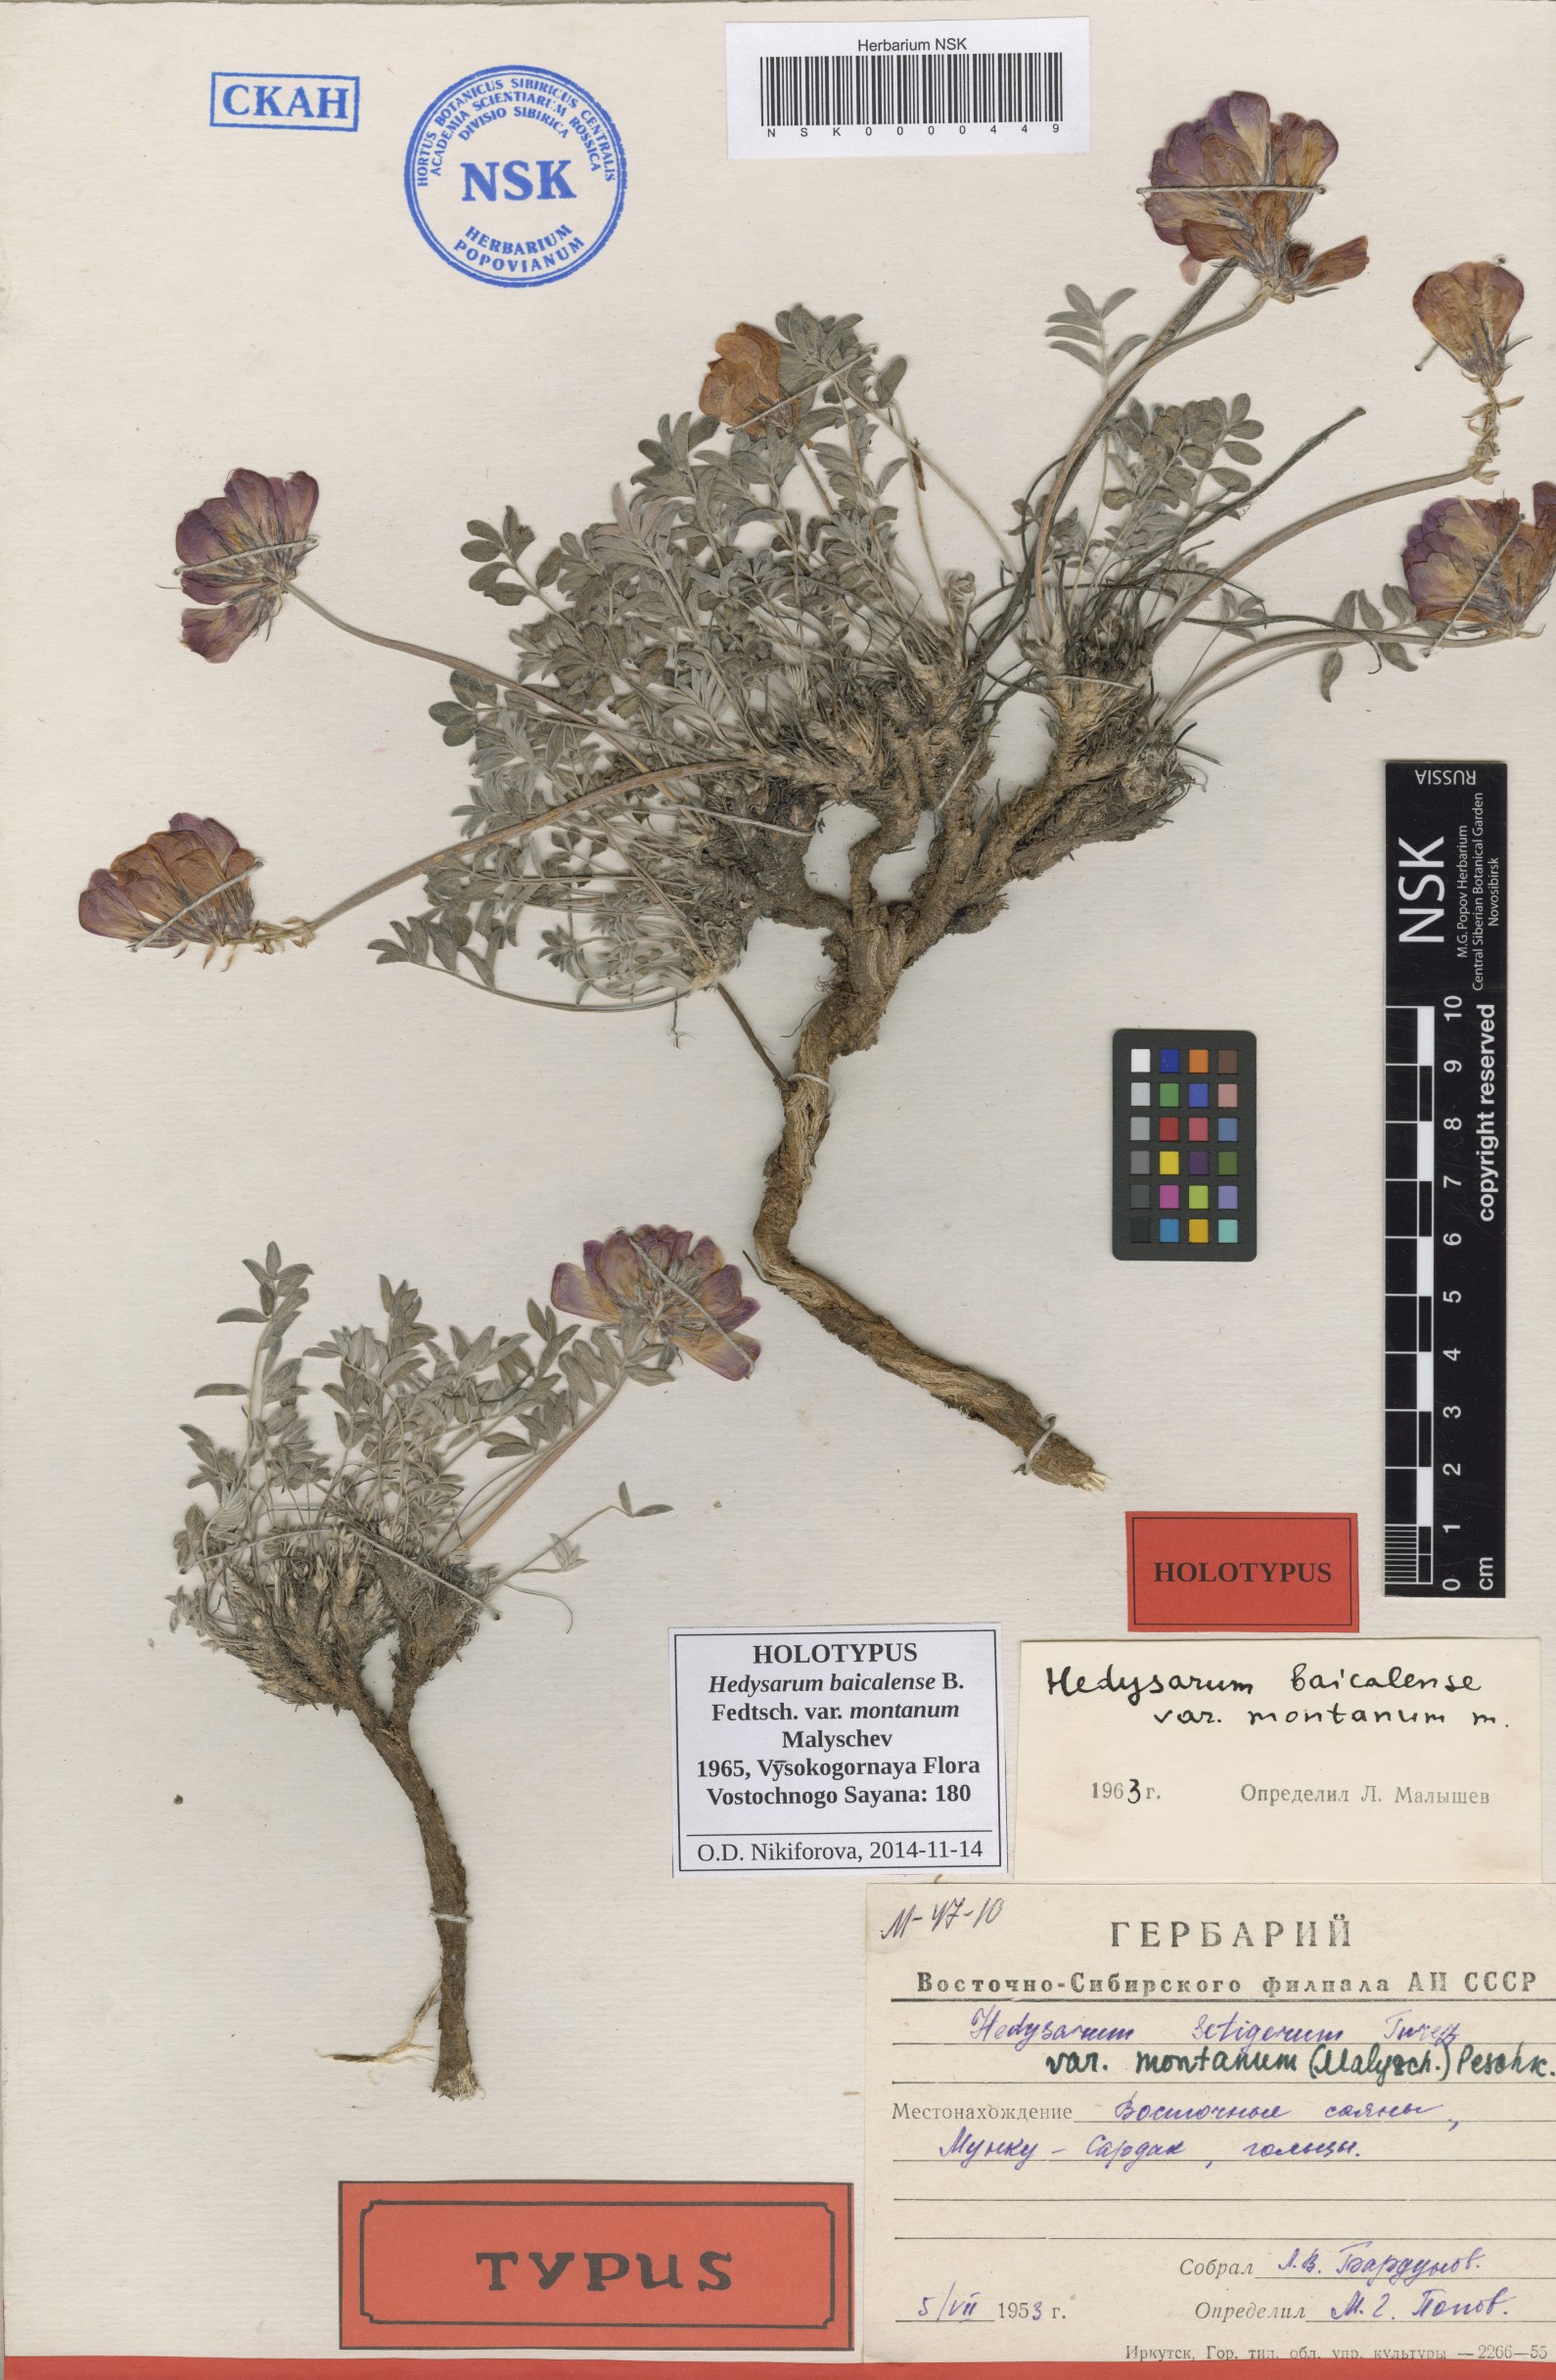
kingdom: Plantae
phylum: Tracheophyta
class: Magnoliopsida
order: Fabales
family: Fabaceae
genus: Hedysarum
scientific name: Hedysarum baicalense
